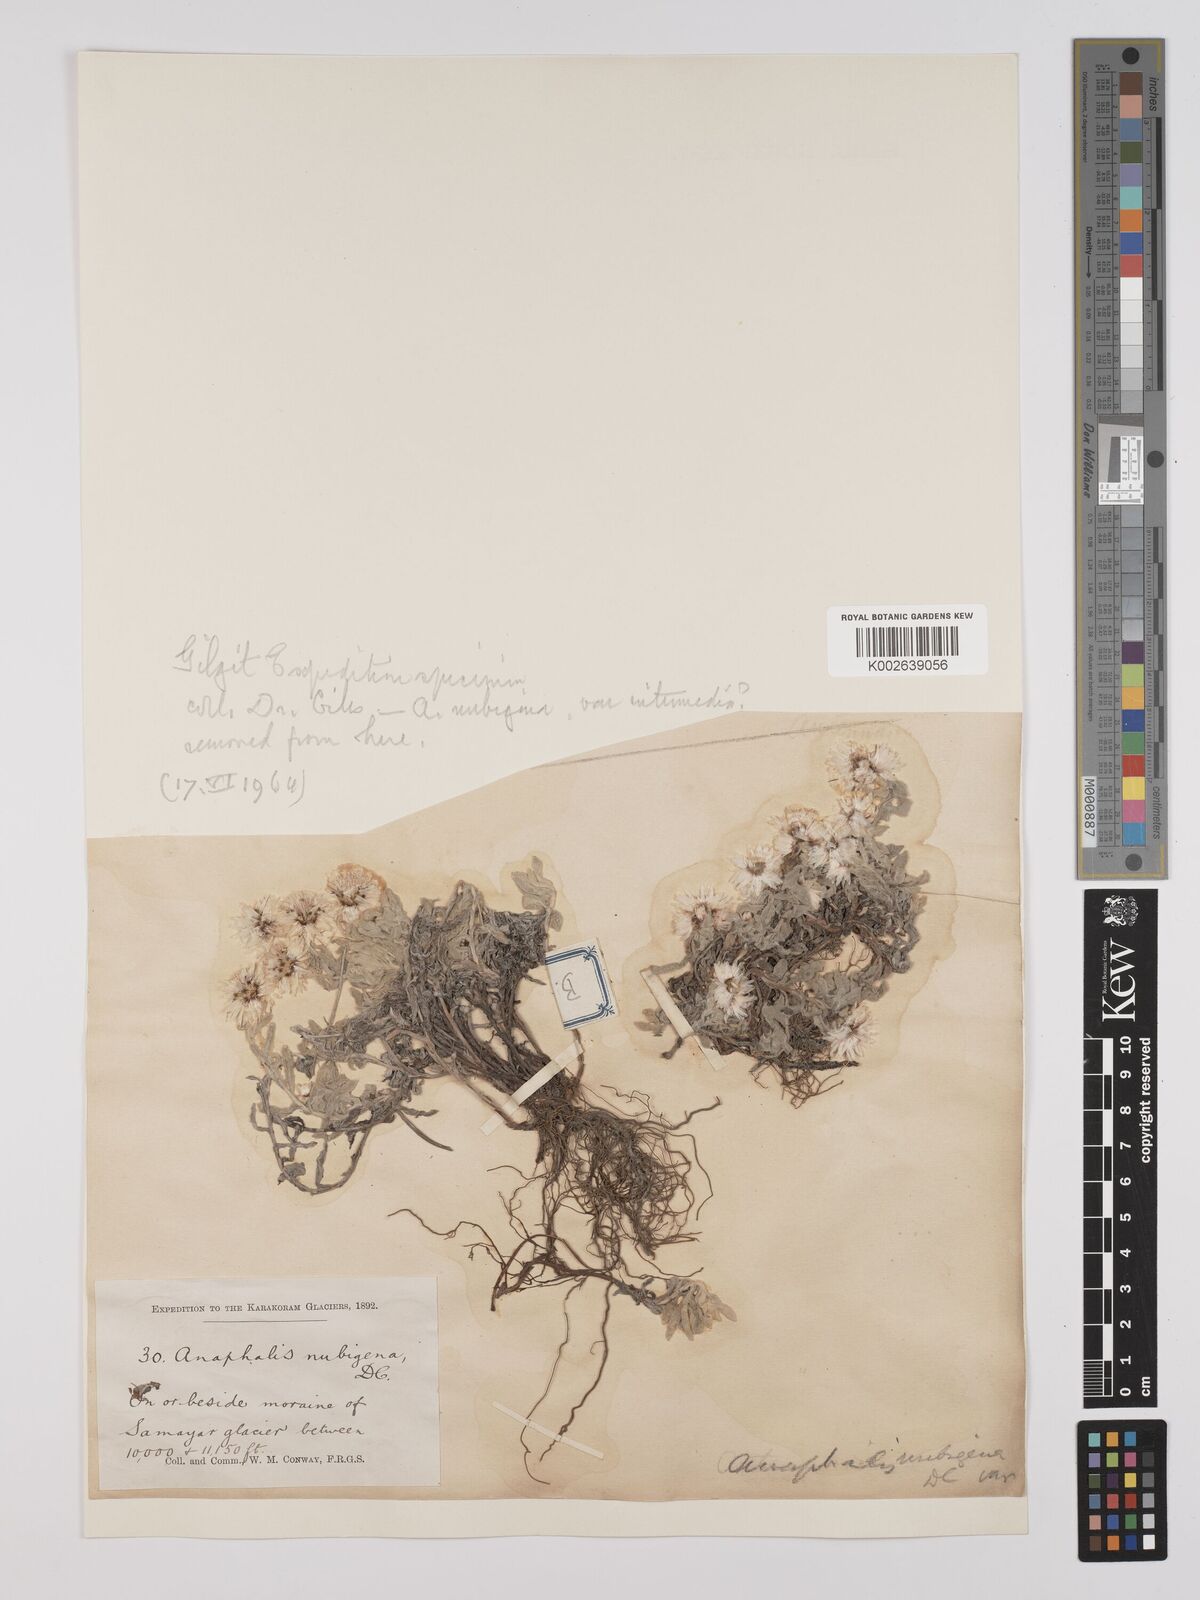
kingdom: Plantae
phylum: Tracheophyta
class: Magnoliopsida
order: Asterales
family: Asteraceae
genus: Anaphalis
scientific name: Anaphalis nepalensis
